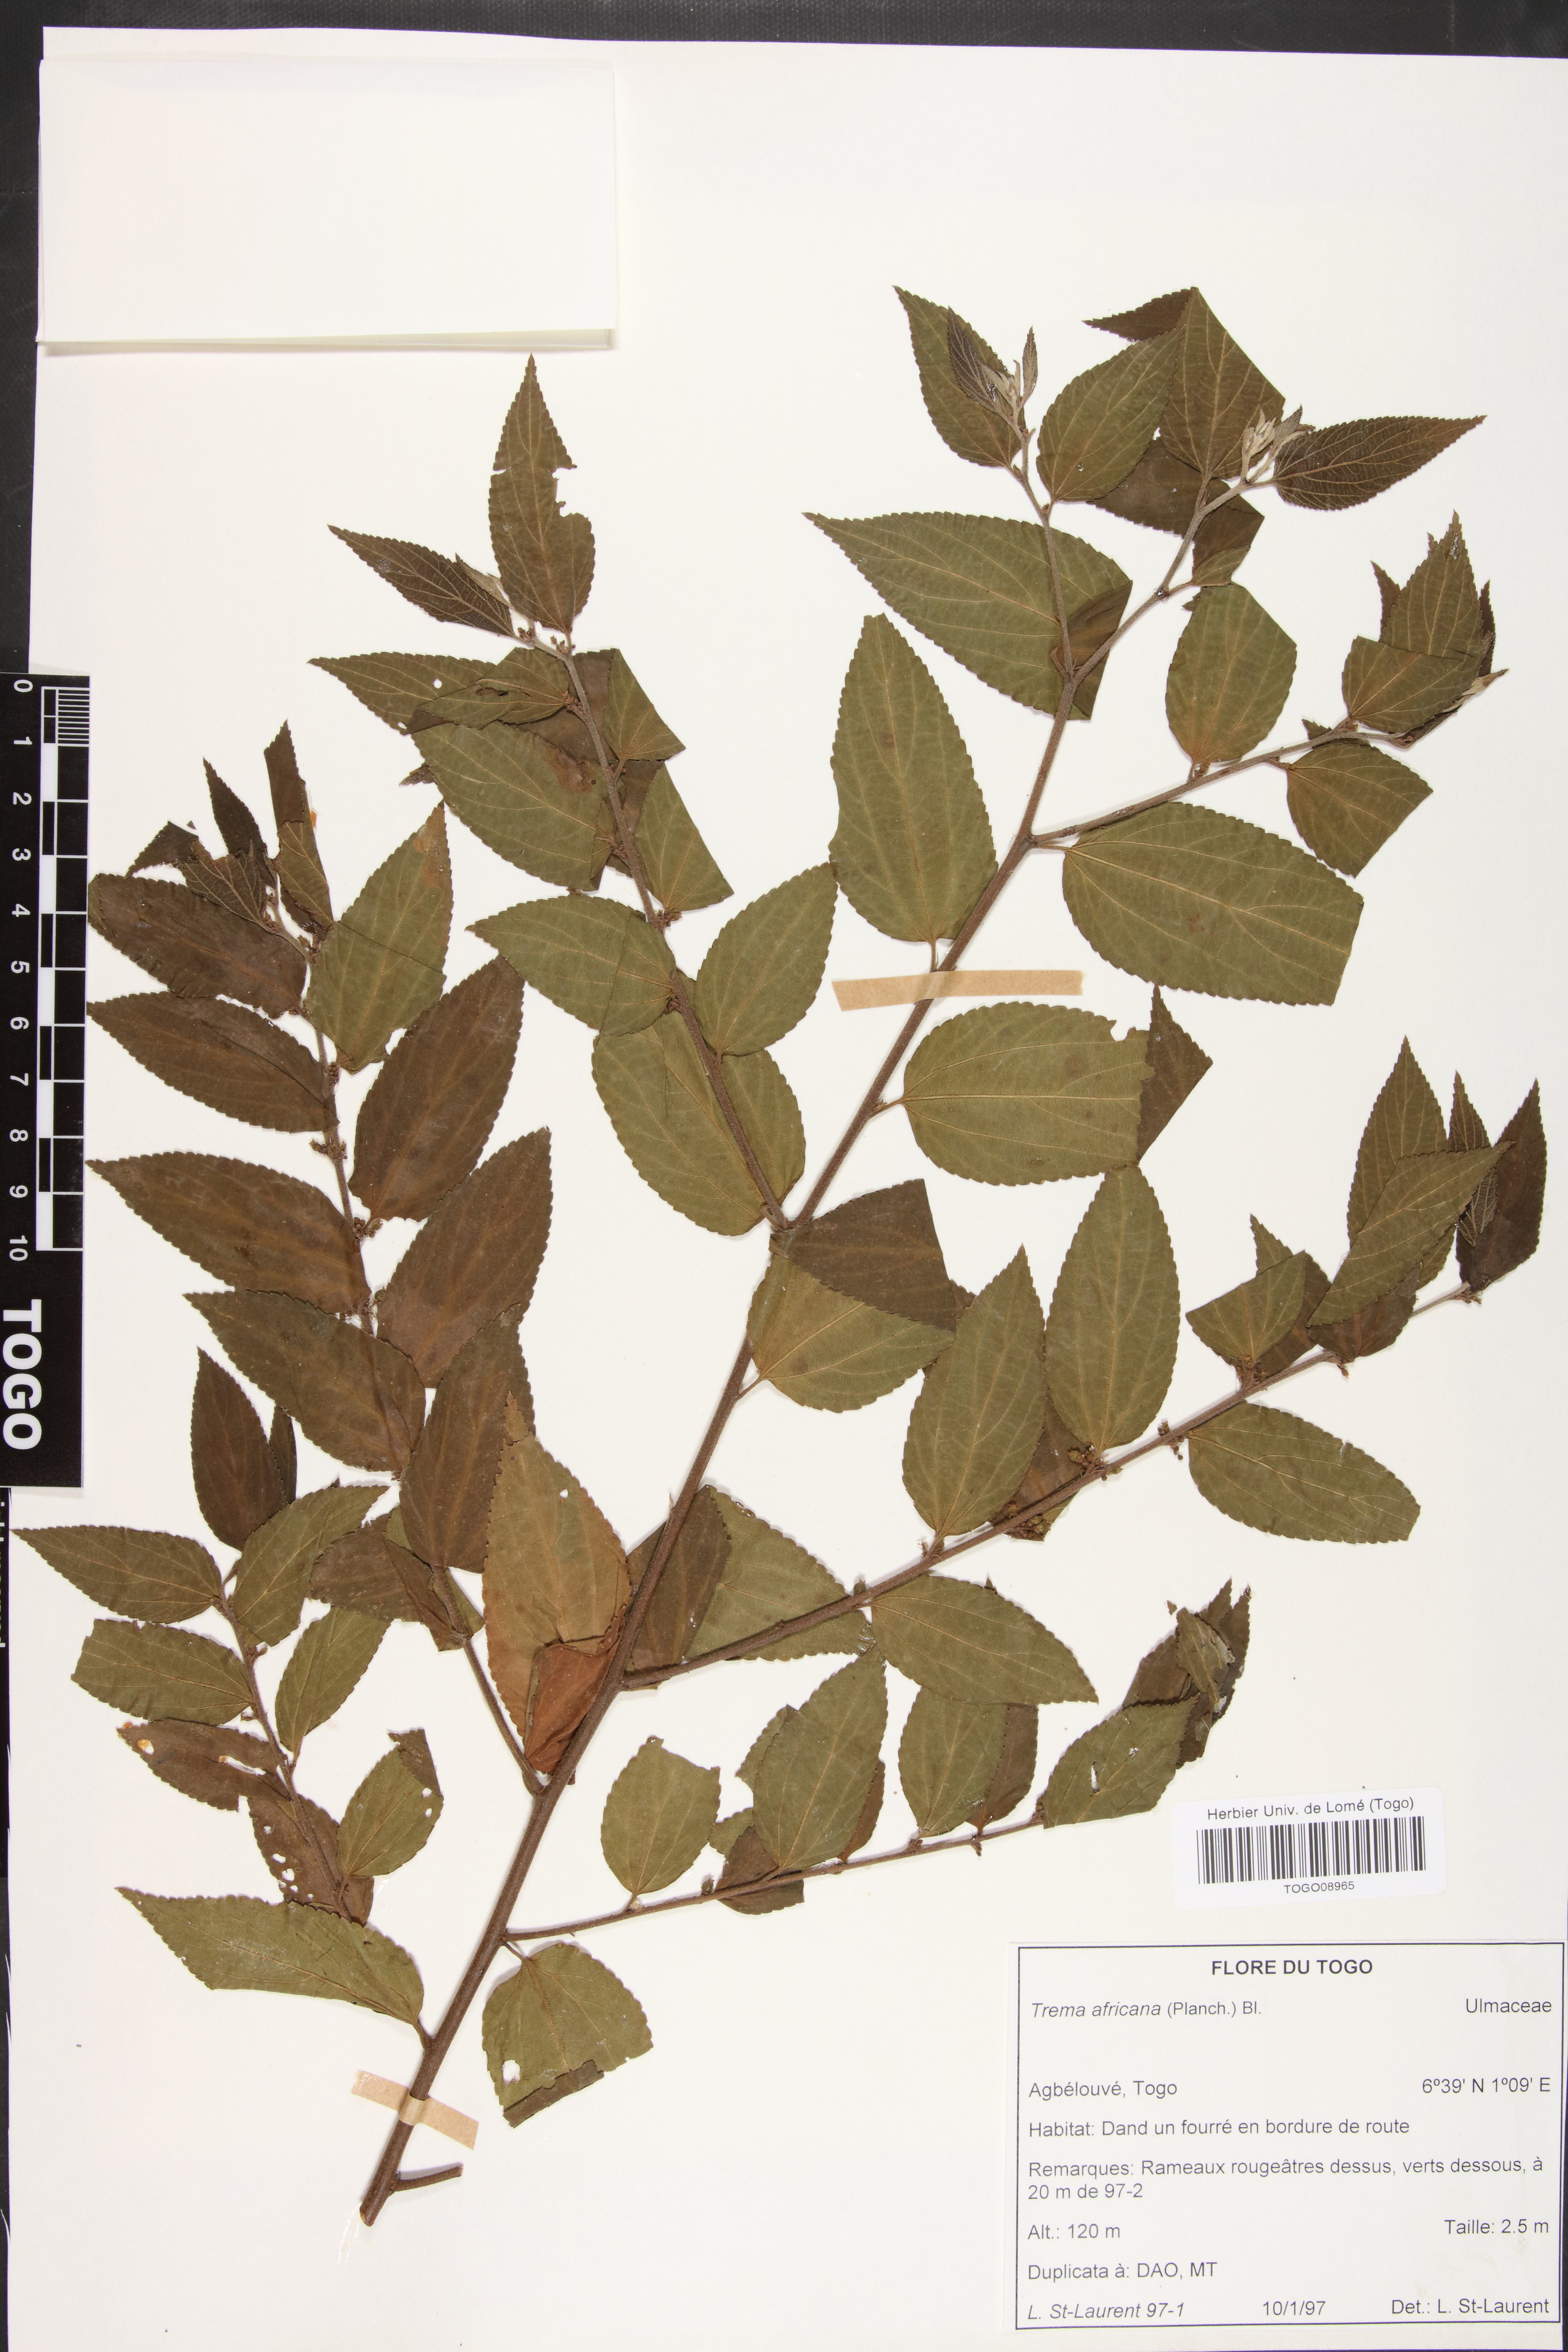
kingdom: Plantae
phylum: Tracheophyta
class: Magnoliopsida
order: Rosales
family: Cannabaceae
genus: Trema
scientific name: Trema orientale
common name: Indian charcoal tree
